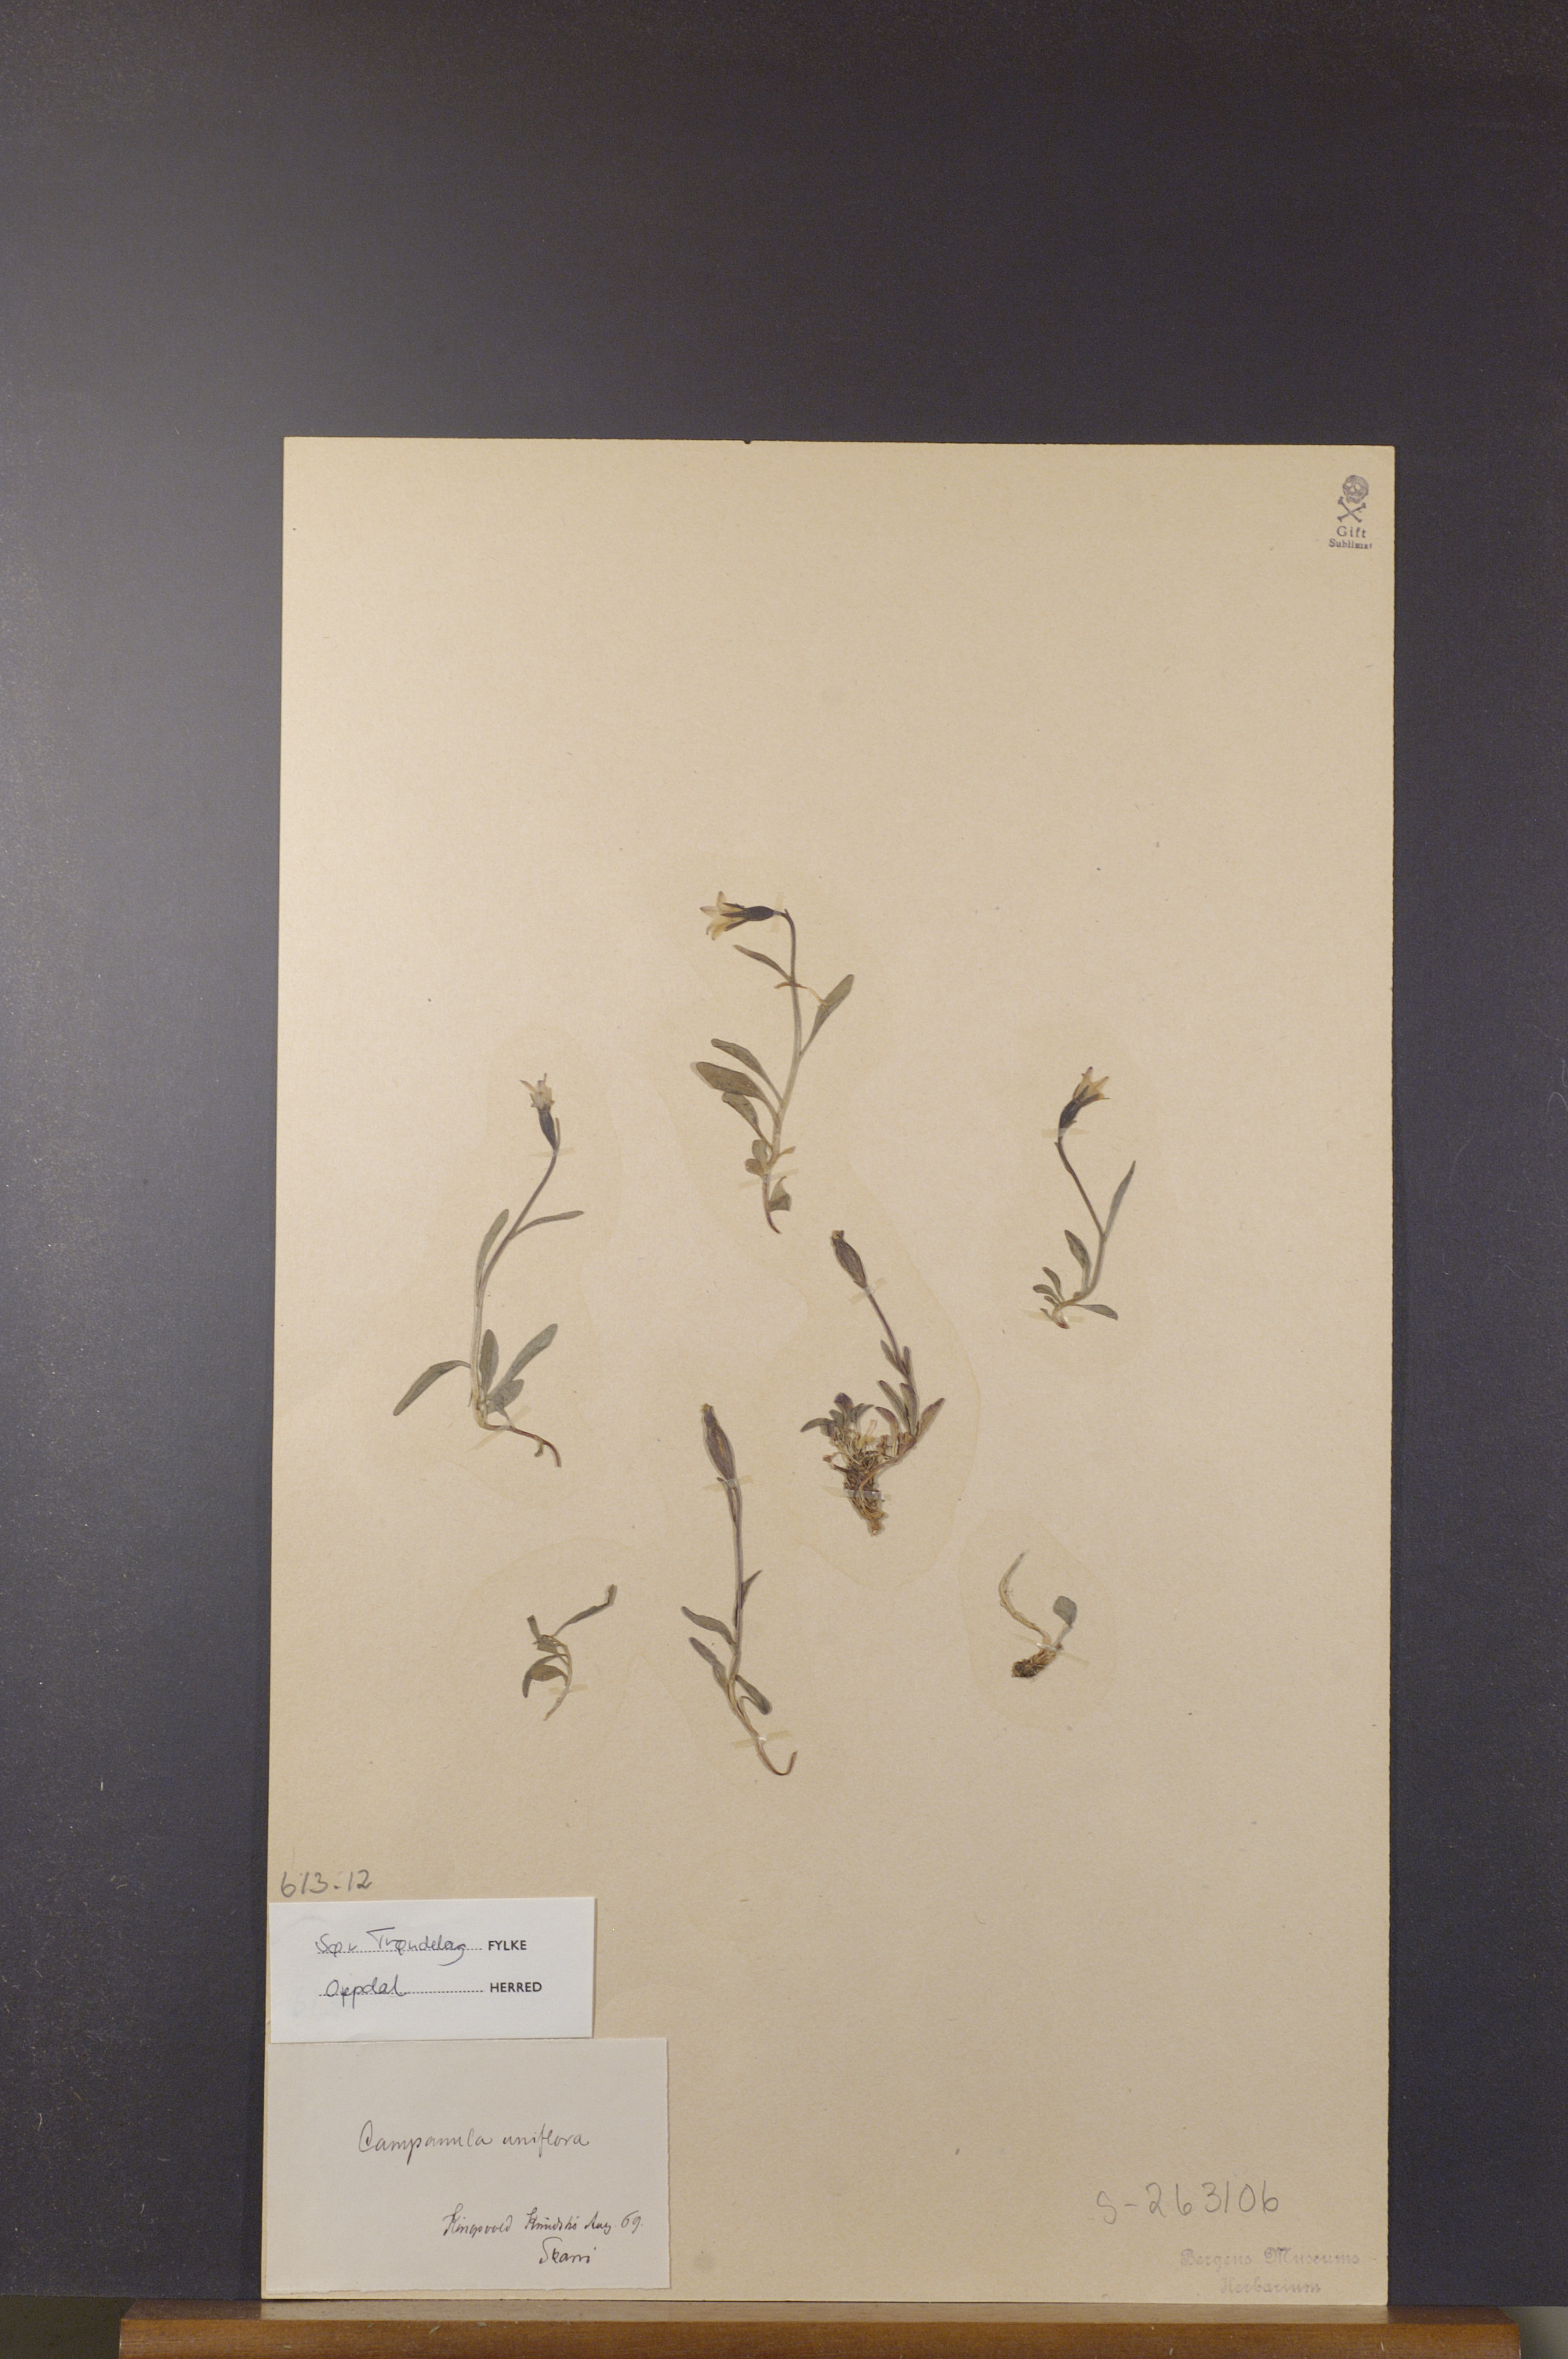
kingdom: Plantae
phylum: Tracheophyta
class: Magnoliopsida
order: Asterales
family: Campanulaceae
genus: Melanocalyx
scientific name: Melanocalyx uniflora
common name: Alpine harebell
